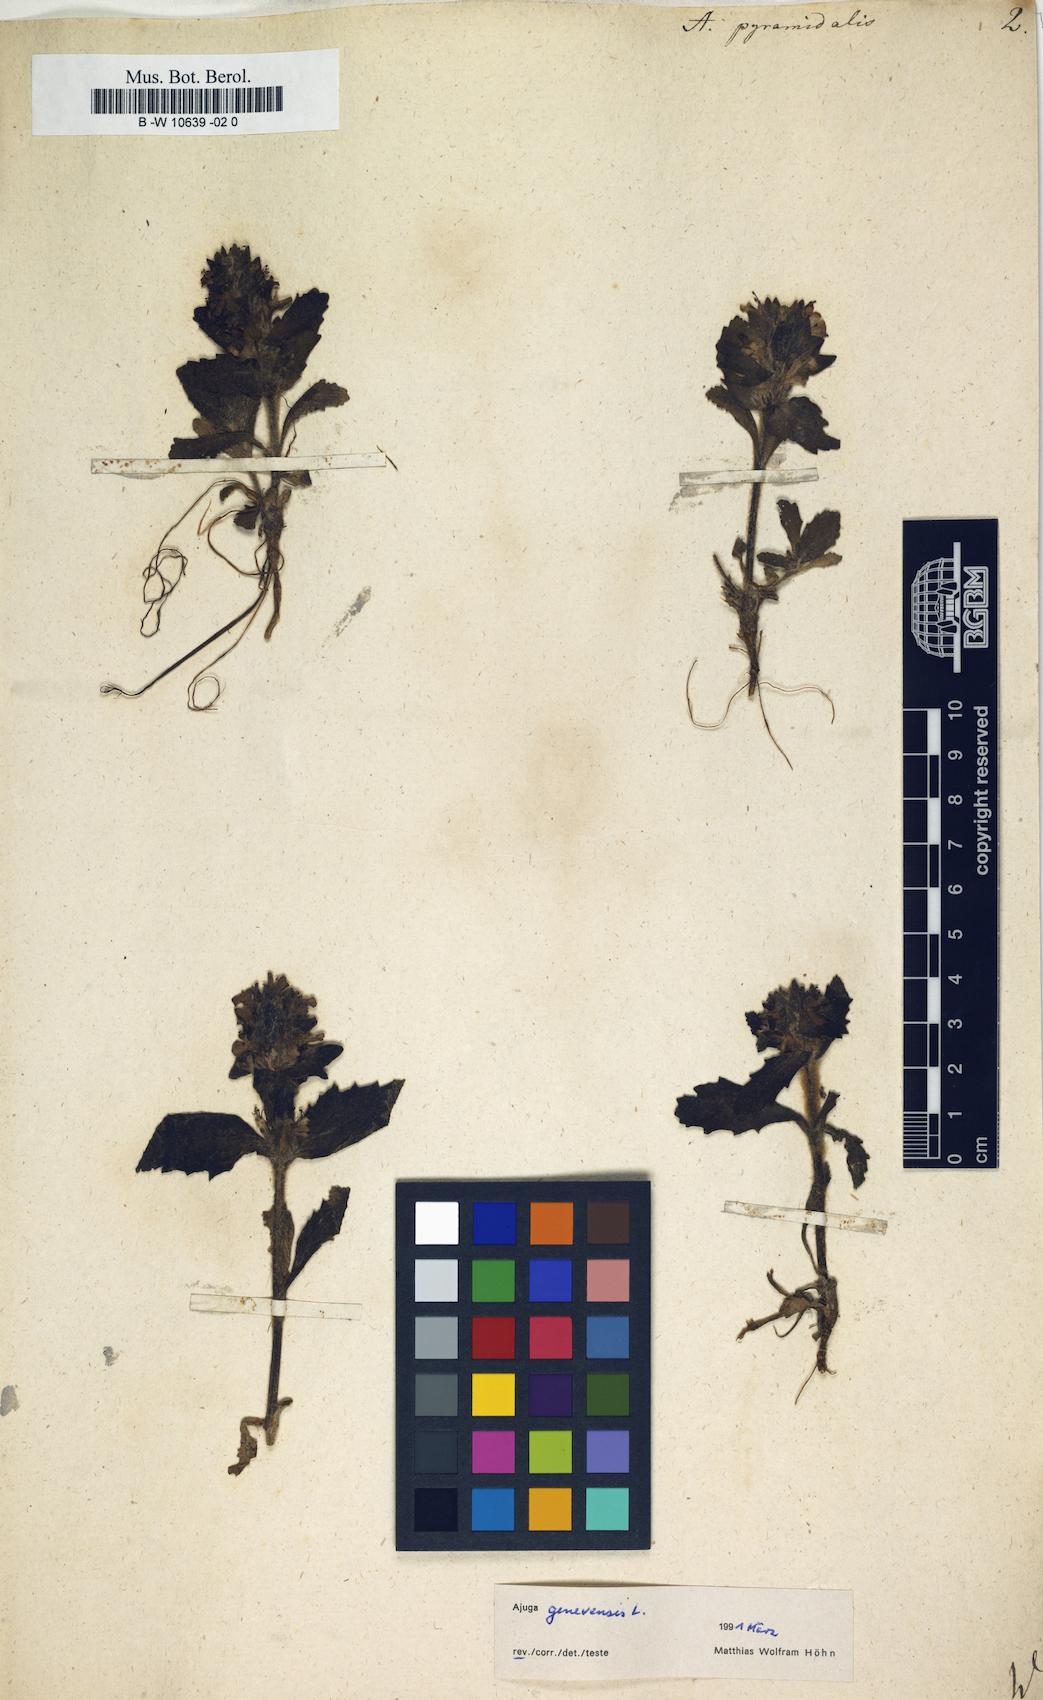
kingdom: Plantae
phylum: Tracheophyta
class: Magnoliopsida
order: Lamiales
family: Lamiaceae
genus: Ajuga
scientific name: Ajuga pyramidalis
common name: Pyramid bugle
